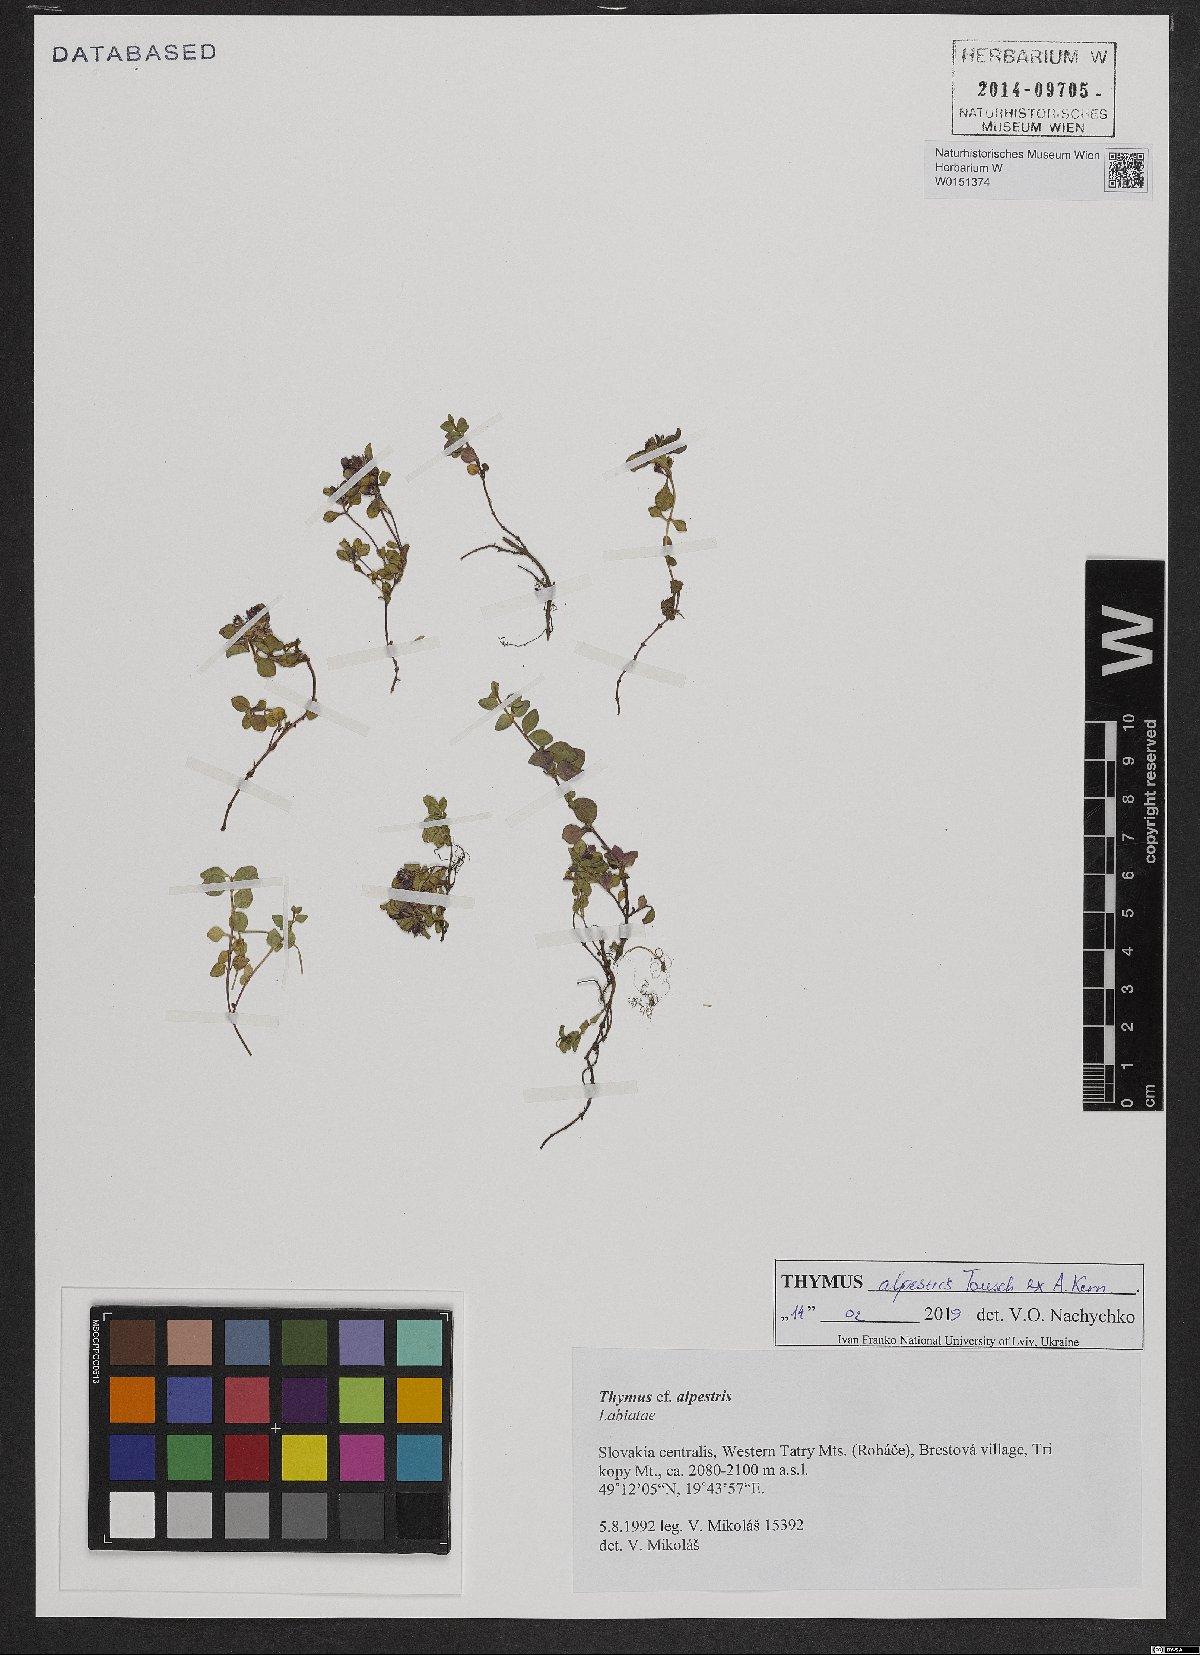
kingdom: Plantae
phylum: Tracheophyta
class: Magnoliopsida
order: Lamiales
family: Lamiaceae
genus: Thymus
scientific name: Thymus alpestris
